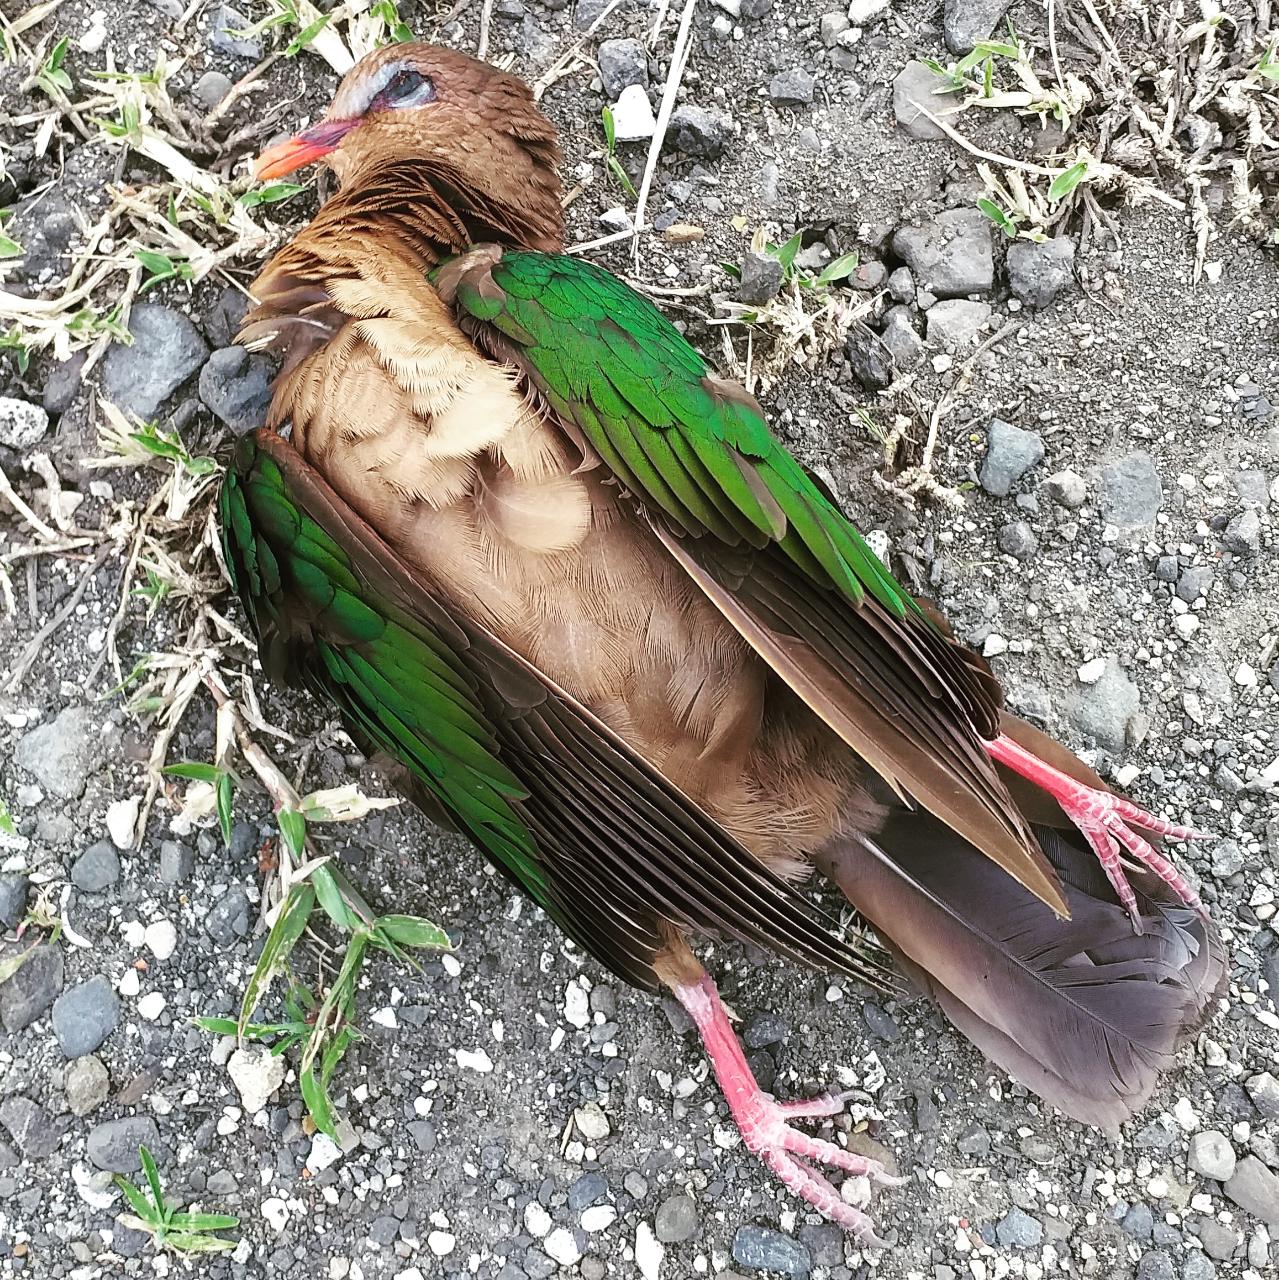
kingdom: Animalia
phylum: Chordata
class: Aves
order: Columbiformes
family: Columbidae
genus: Chalcophaps
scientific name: Chalcophaps indica
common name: Common emerald dove
